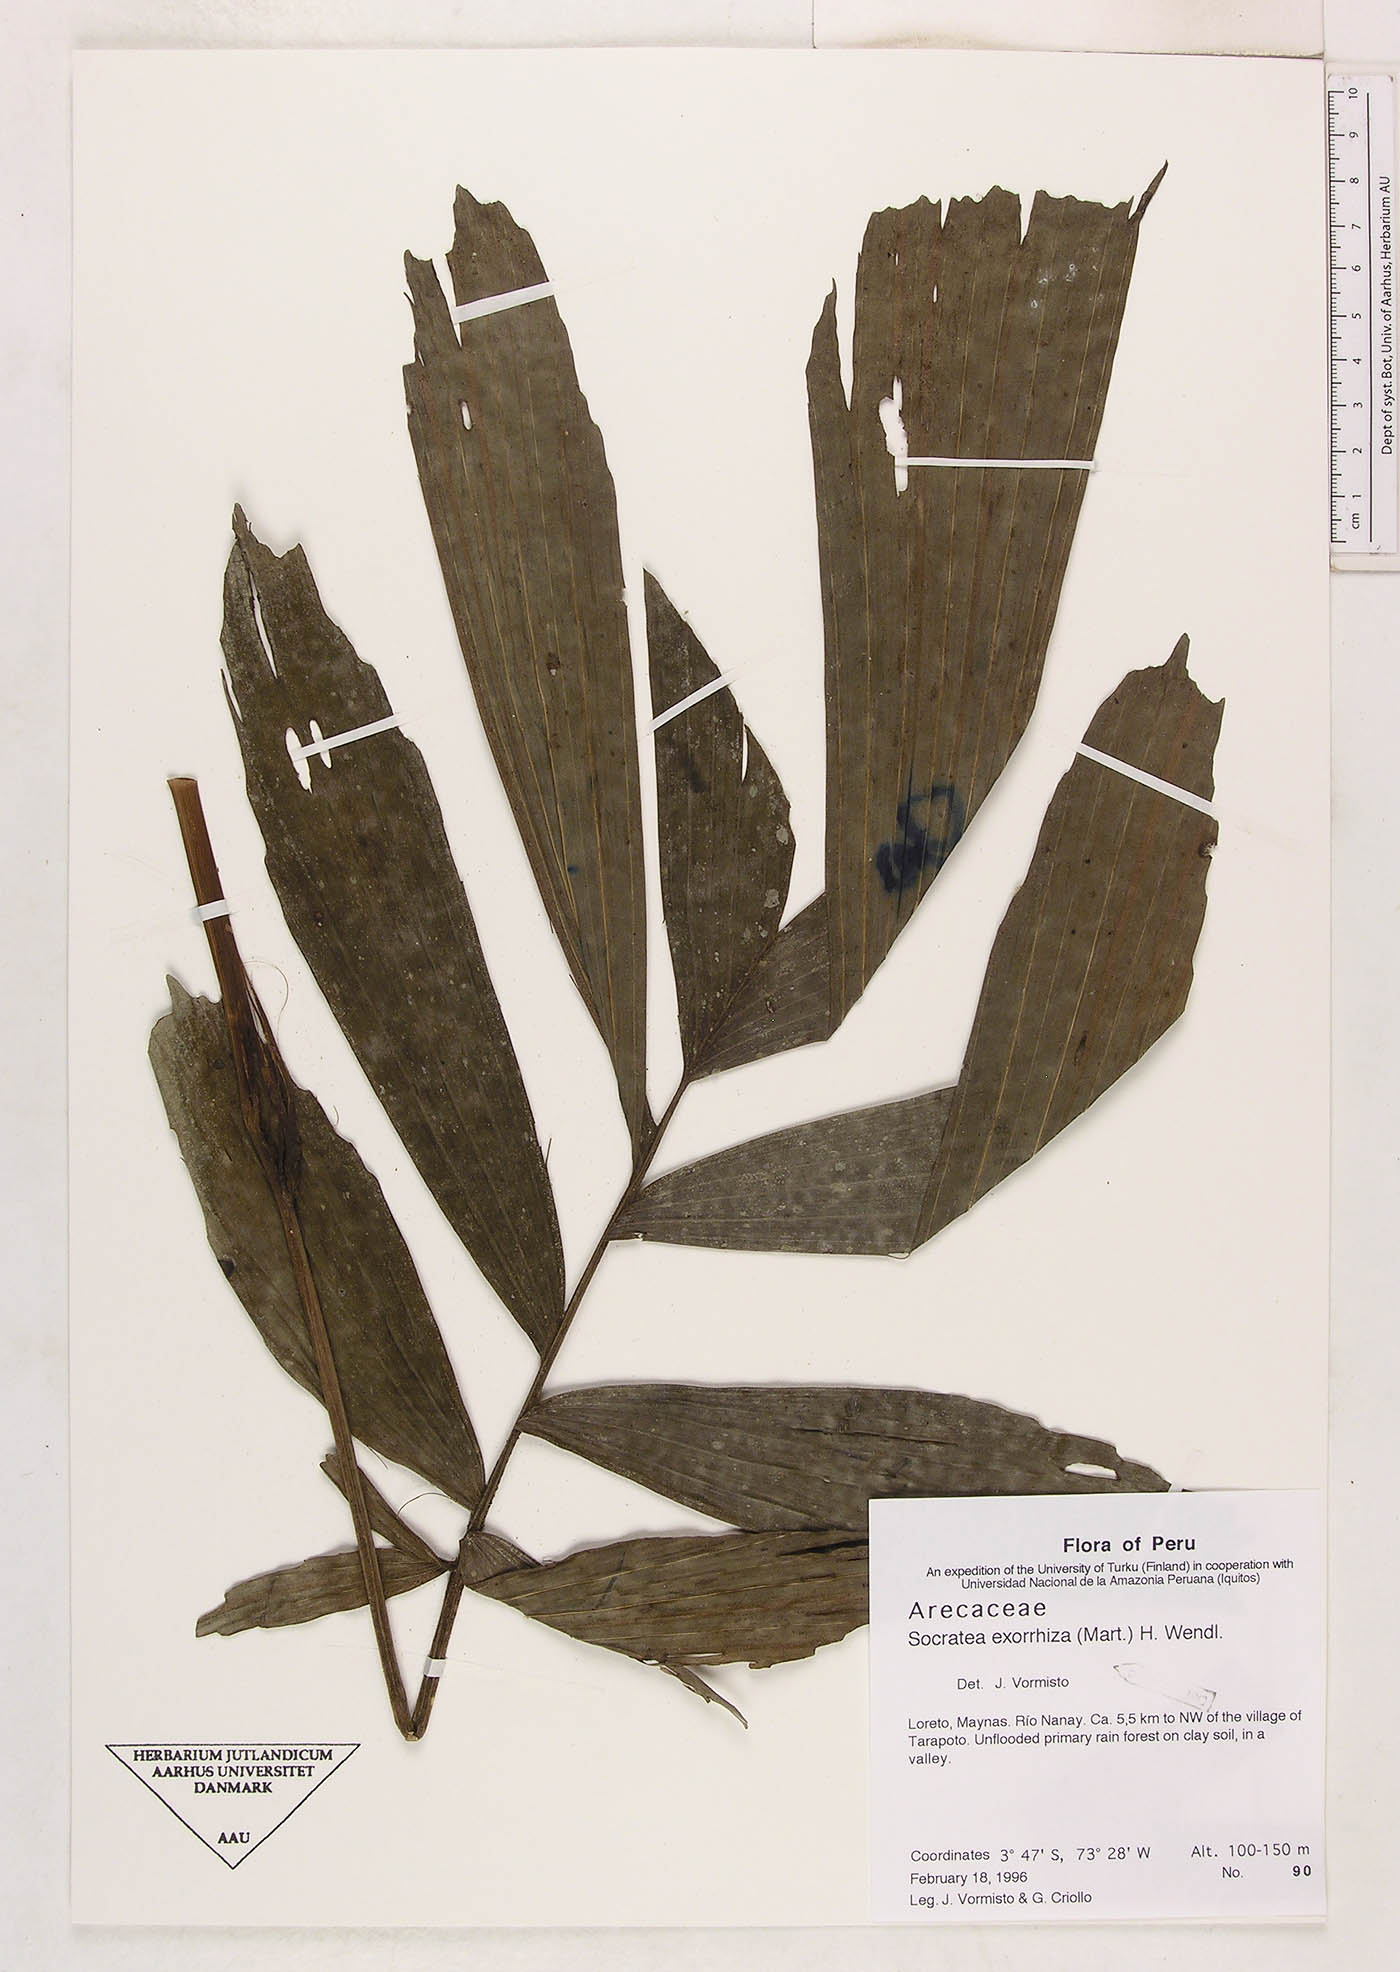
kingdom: Plantae
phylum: Tracheophyta
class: Liliopsida
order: Arecales
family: Arecaceae
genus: Socratea
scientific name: Socratea exorrhiza
